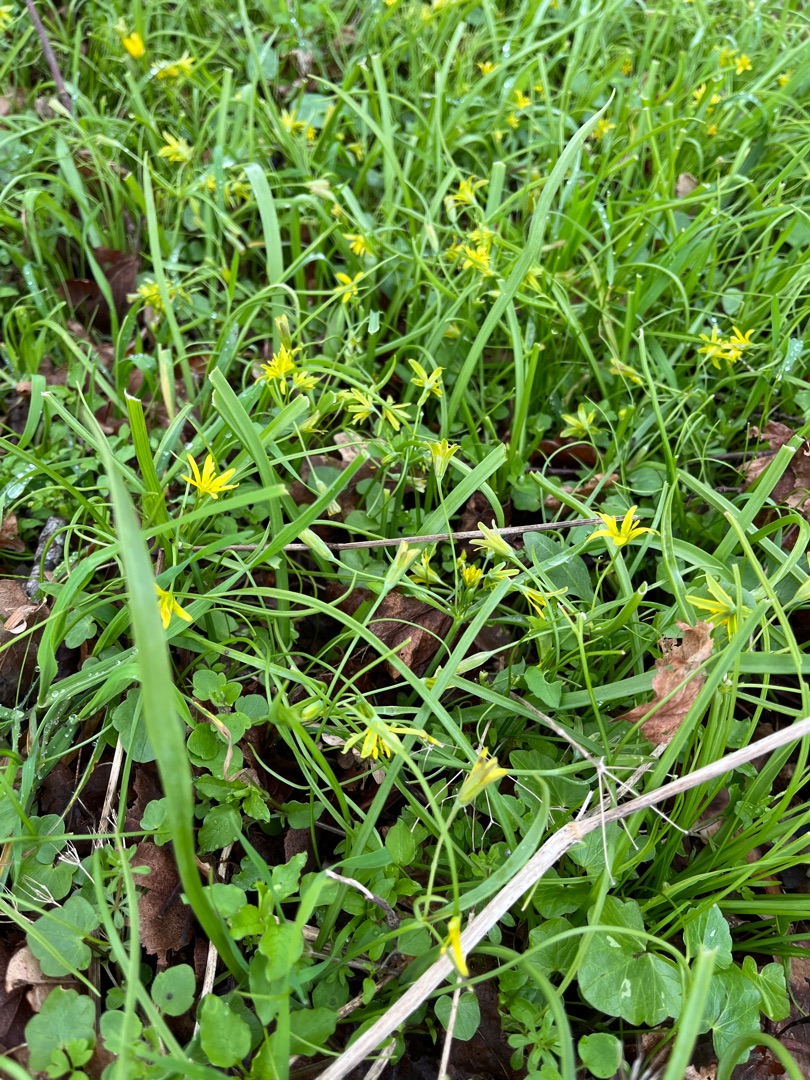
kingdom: Plantae
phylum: Tracheophyta
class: Liliopsida
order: Liliales
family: Liliaceae
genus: Gagea
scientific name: Gagea lutea
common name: Almindelig guldstjerne
